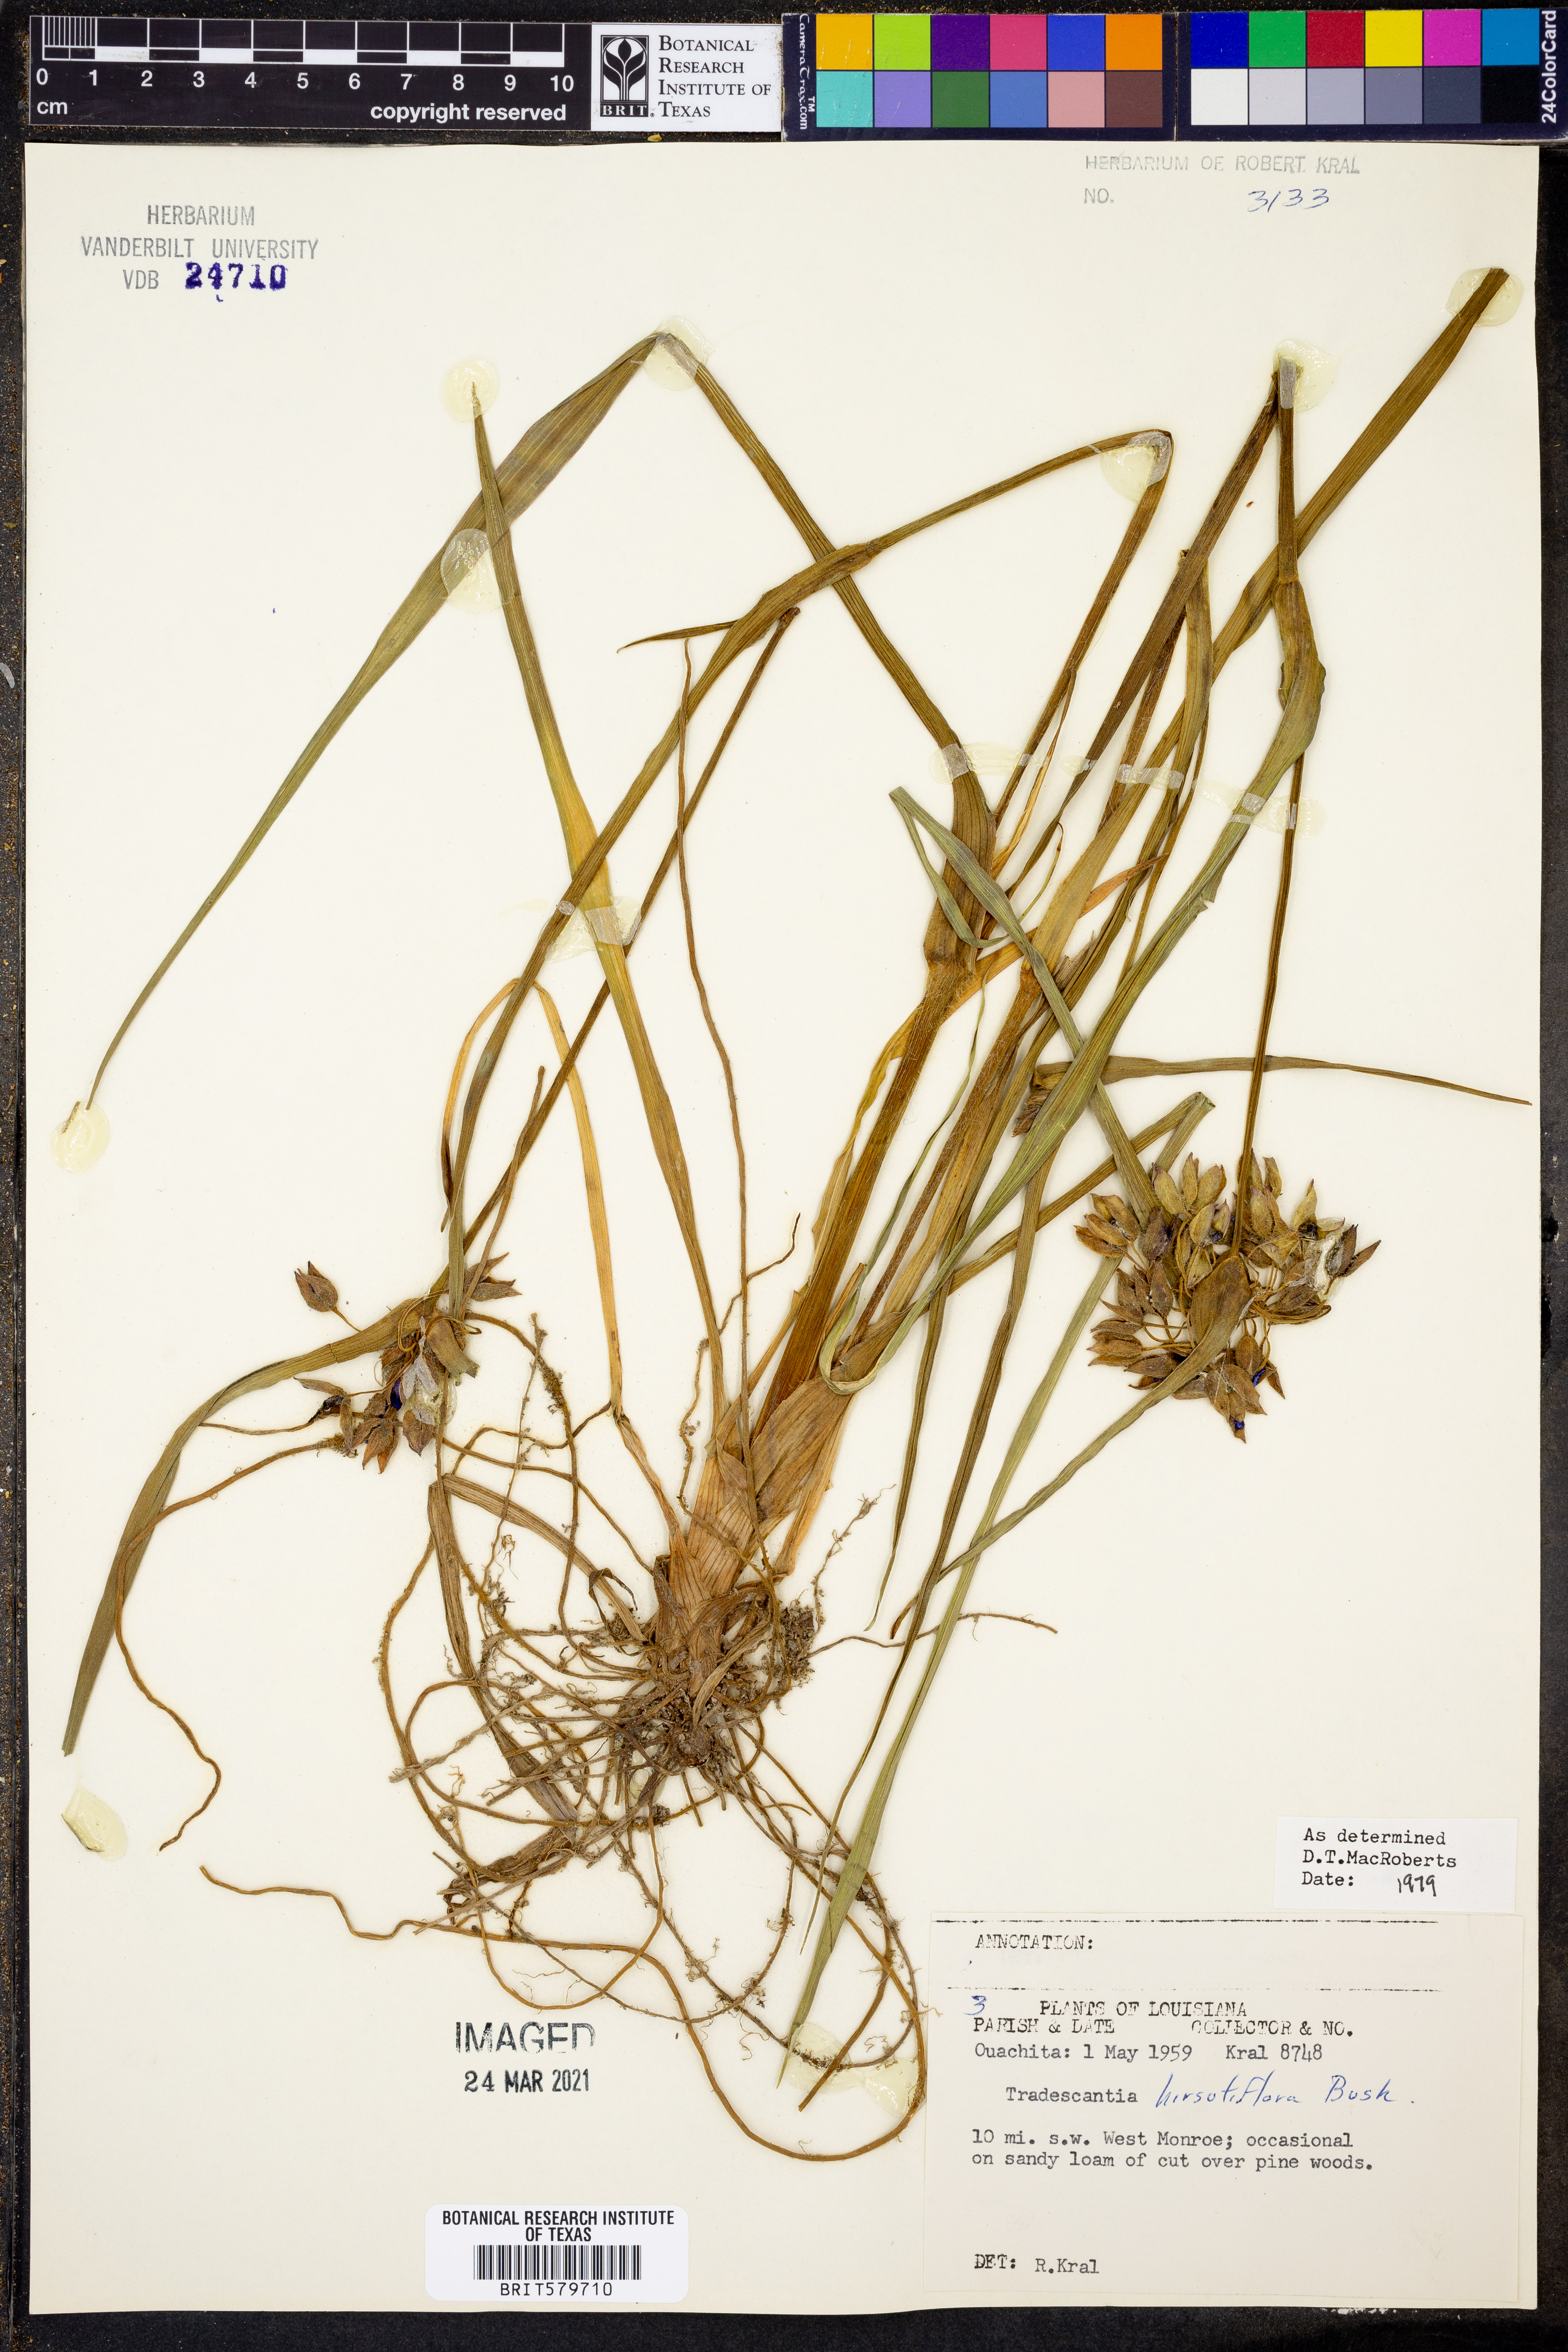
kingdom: Plantae
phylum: Tracheophyta
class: Liliopsida
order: Commelinales
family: Commelinaceae
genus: Tradescantia
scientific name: Tradescantia hirsutiflora
